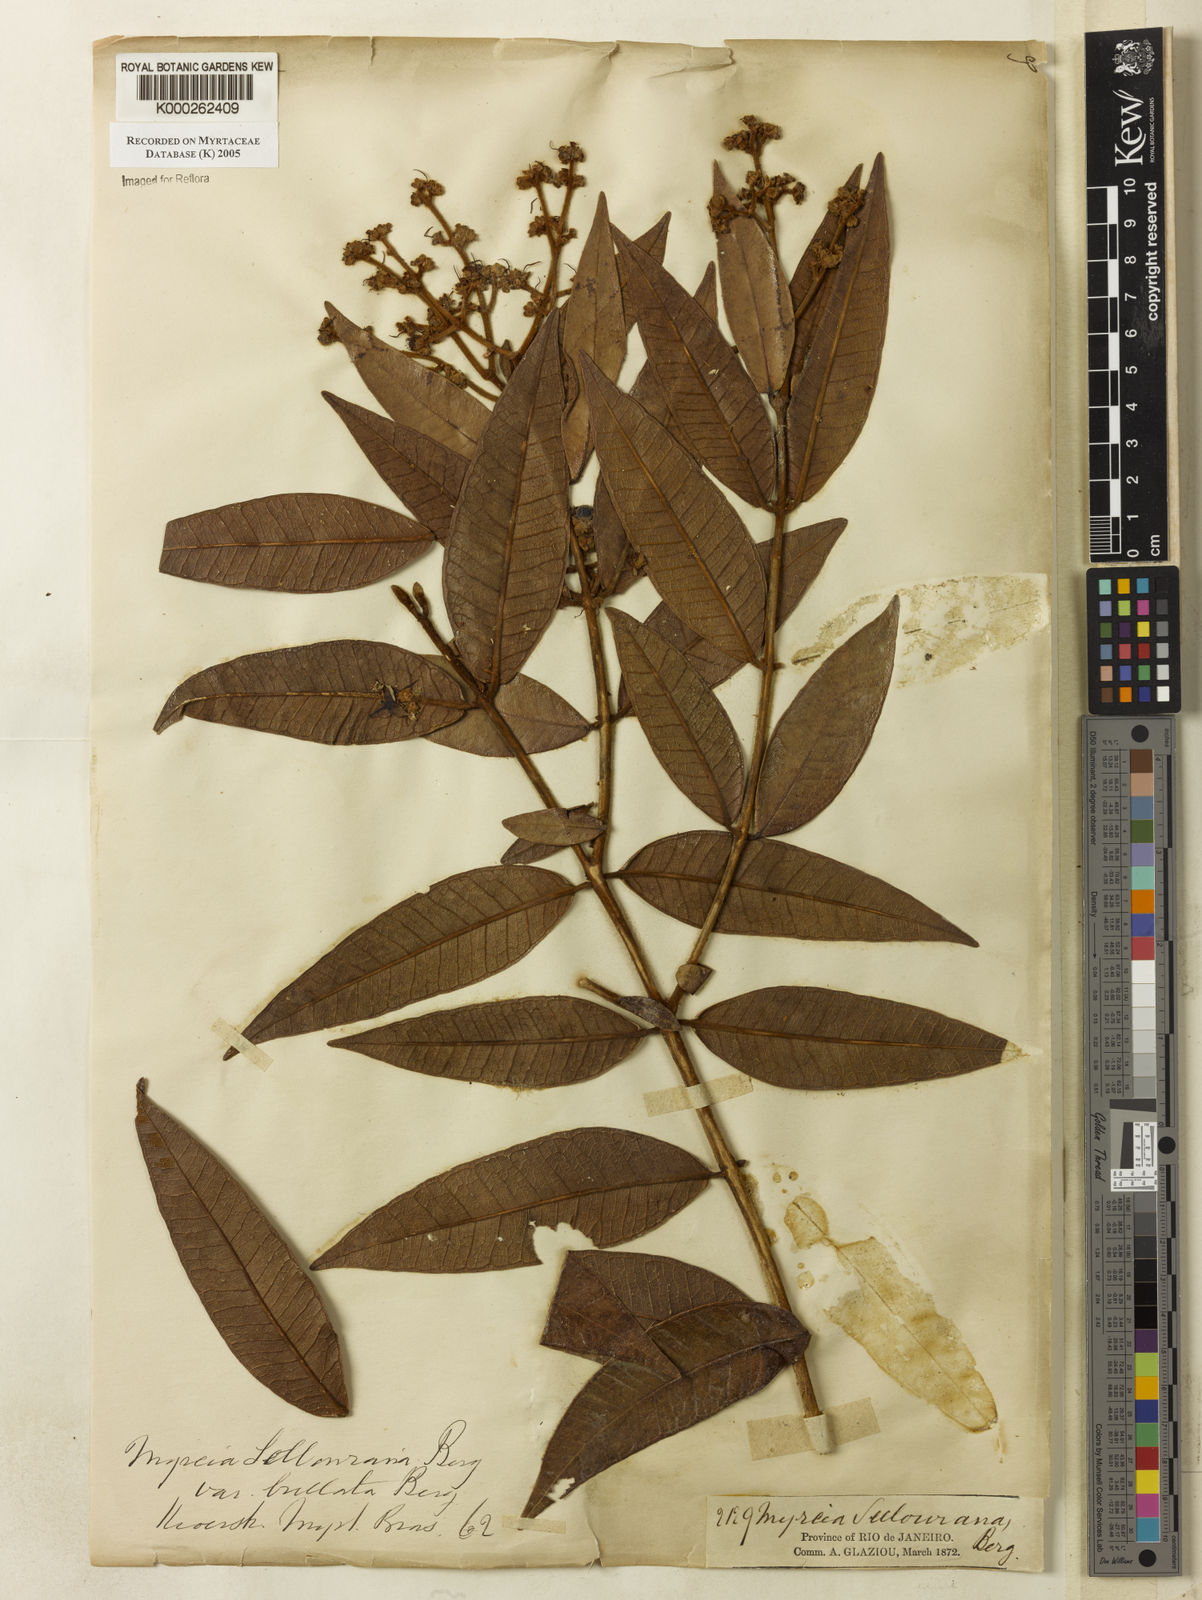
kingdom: Plantae
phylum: Tracheophyta
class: Magnoliopsida
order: Myrtales
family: Myrtaceae
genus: Myrcia
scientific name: Myrcia splendens
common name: Surinam cherry
